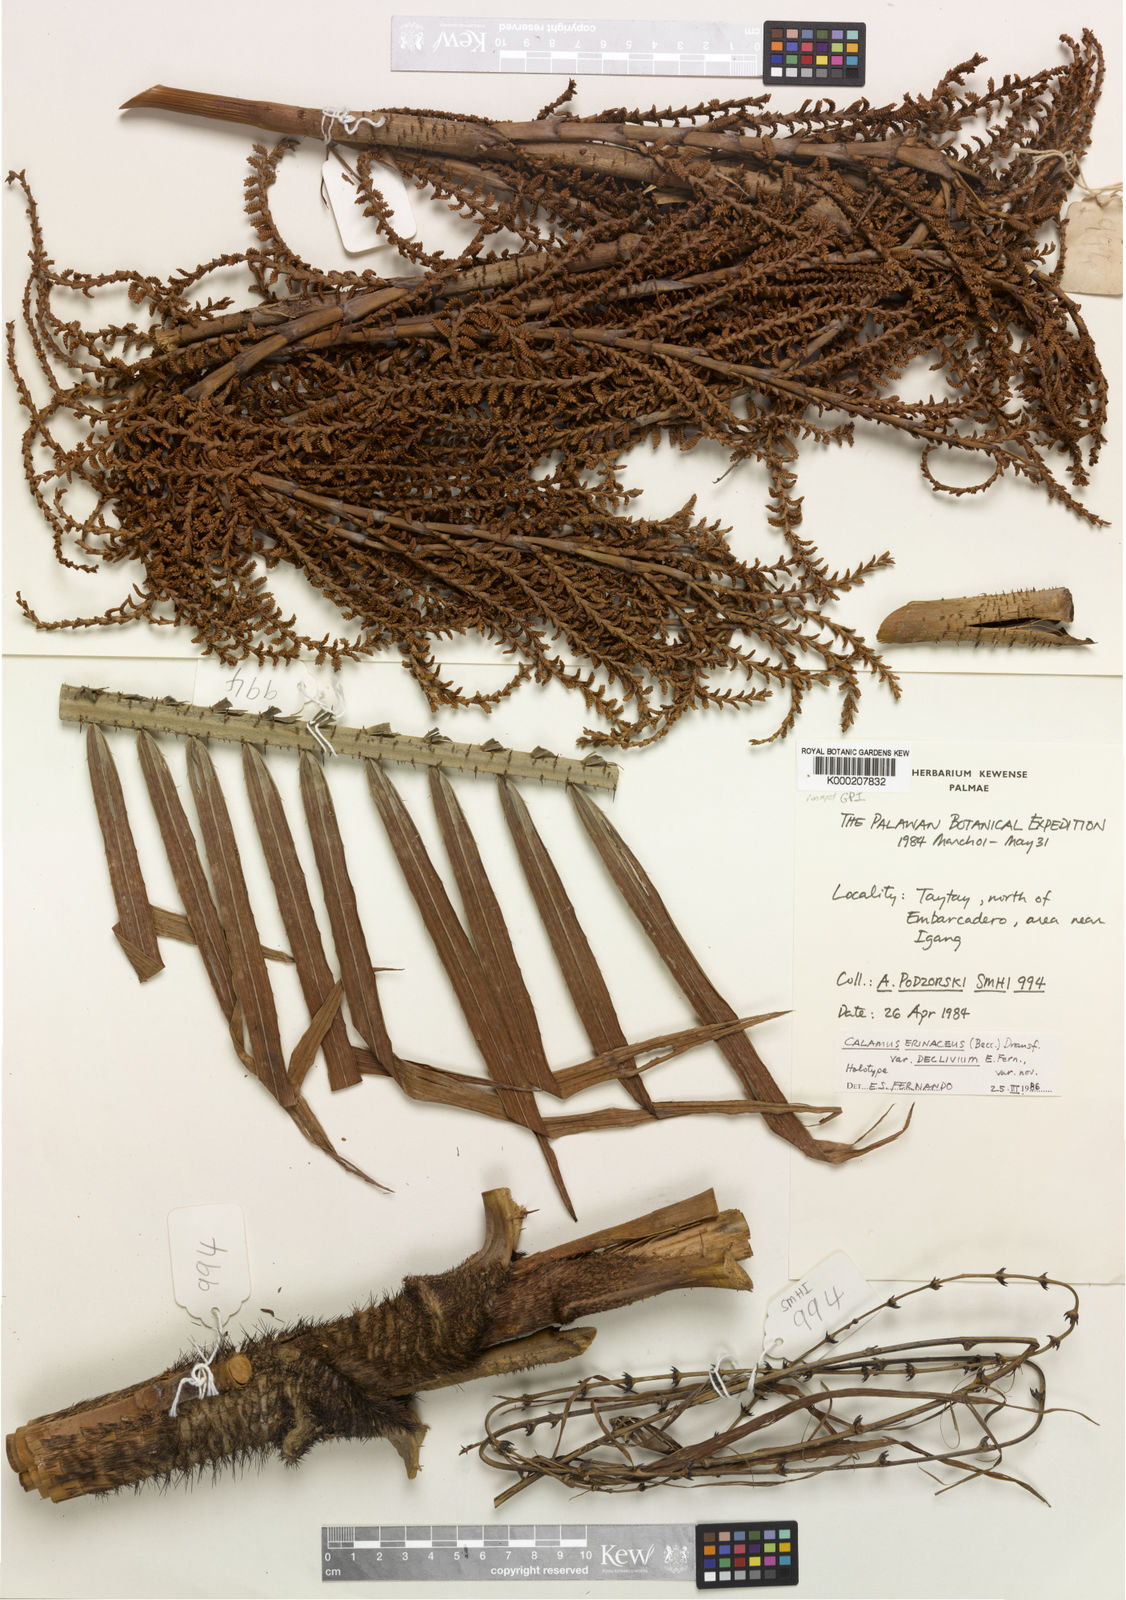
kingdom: Plantae
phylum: Tracheophyta
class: Liliopsida
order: Arecales
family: Arecaceae
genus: Calamus
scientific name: Calamus
